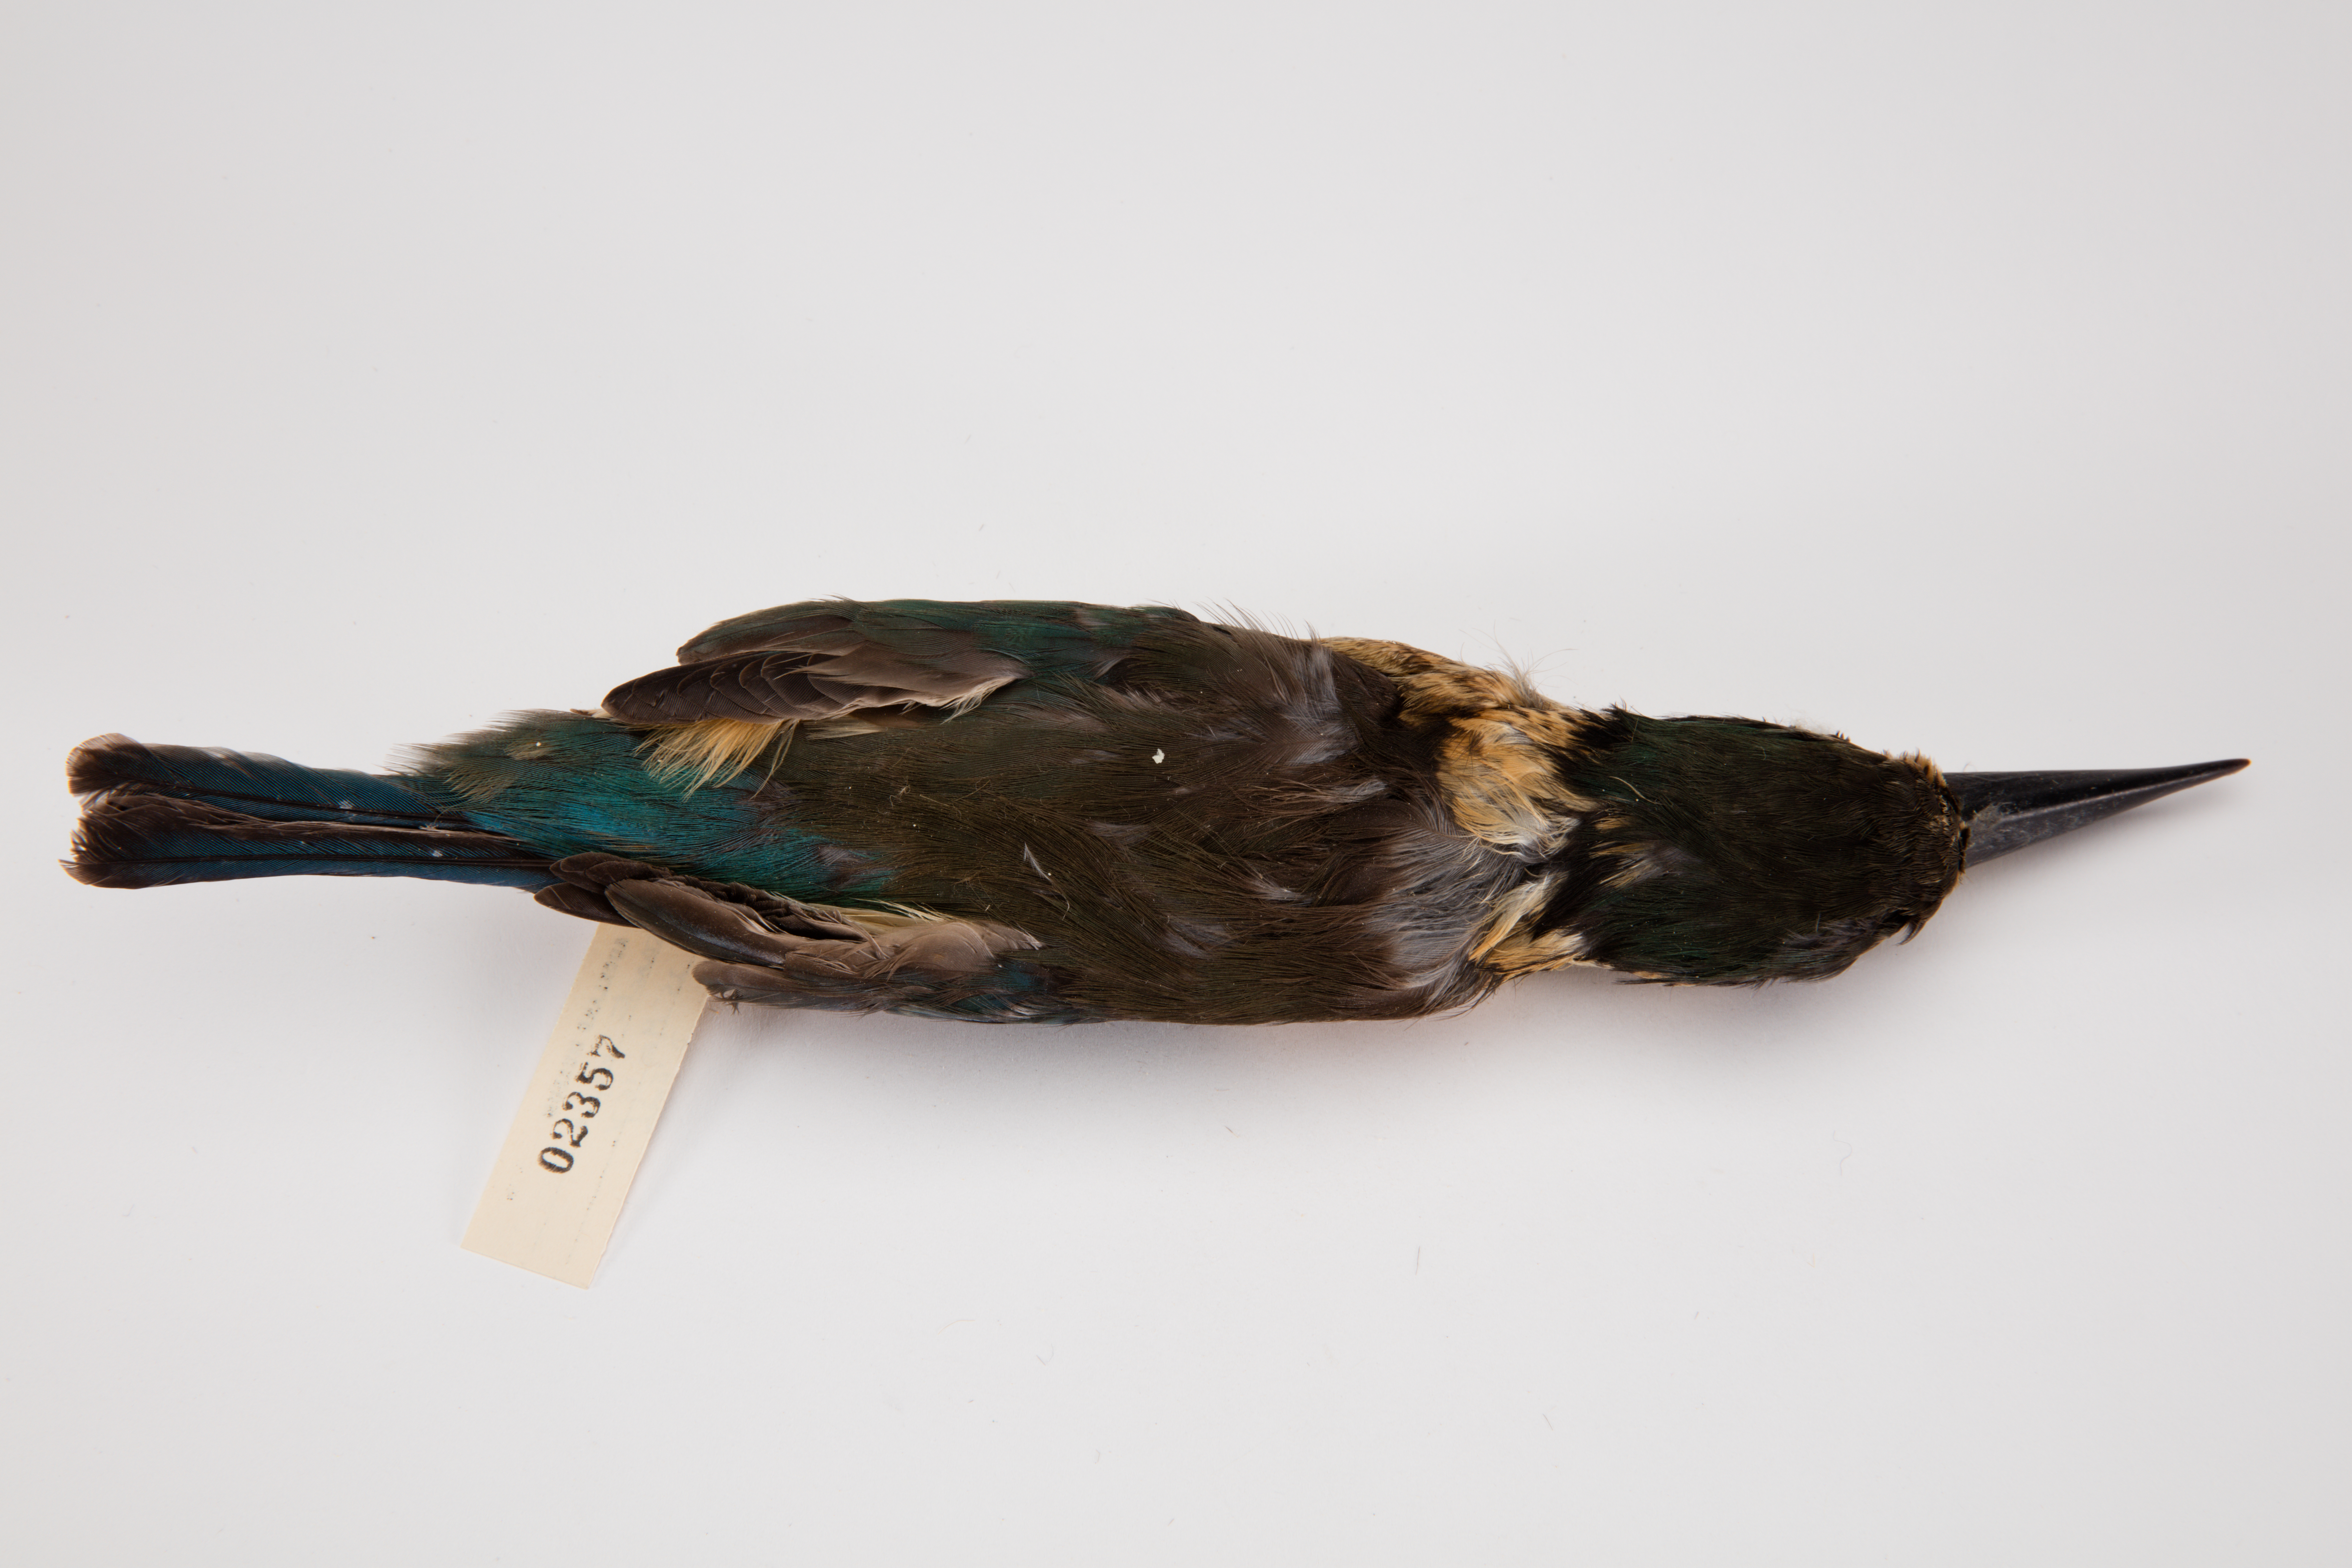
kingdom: Animalia
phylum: Chordata
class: Aves
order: Coraciiformes
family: Alcedinidae
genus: Todiramphus
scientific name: Todiramphus sanctus
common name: Sacred kingfisher
